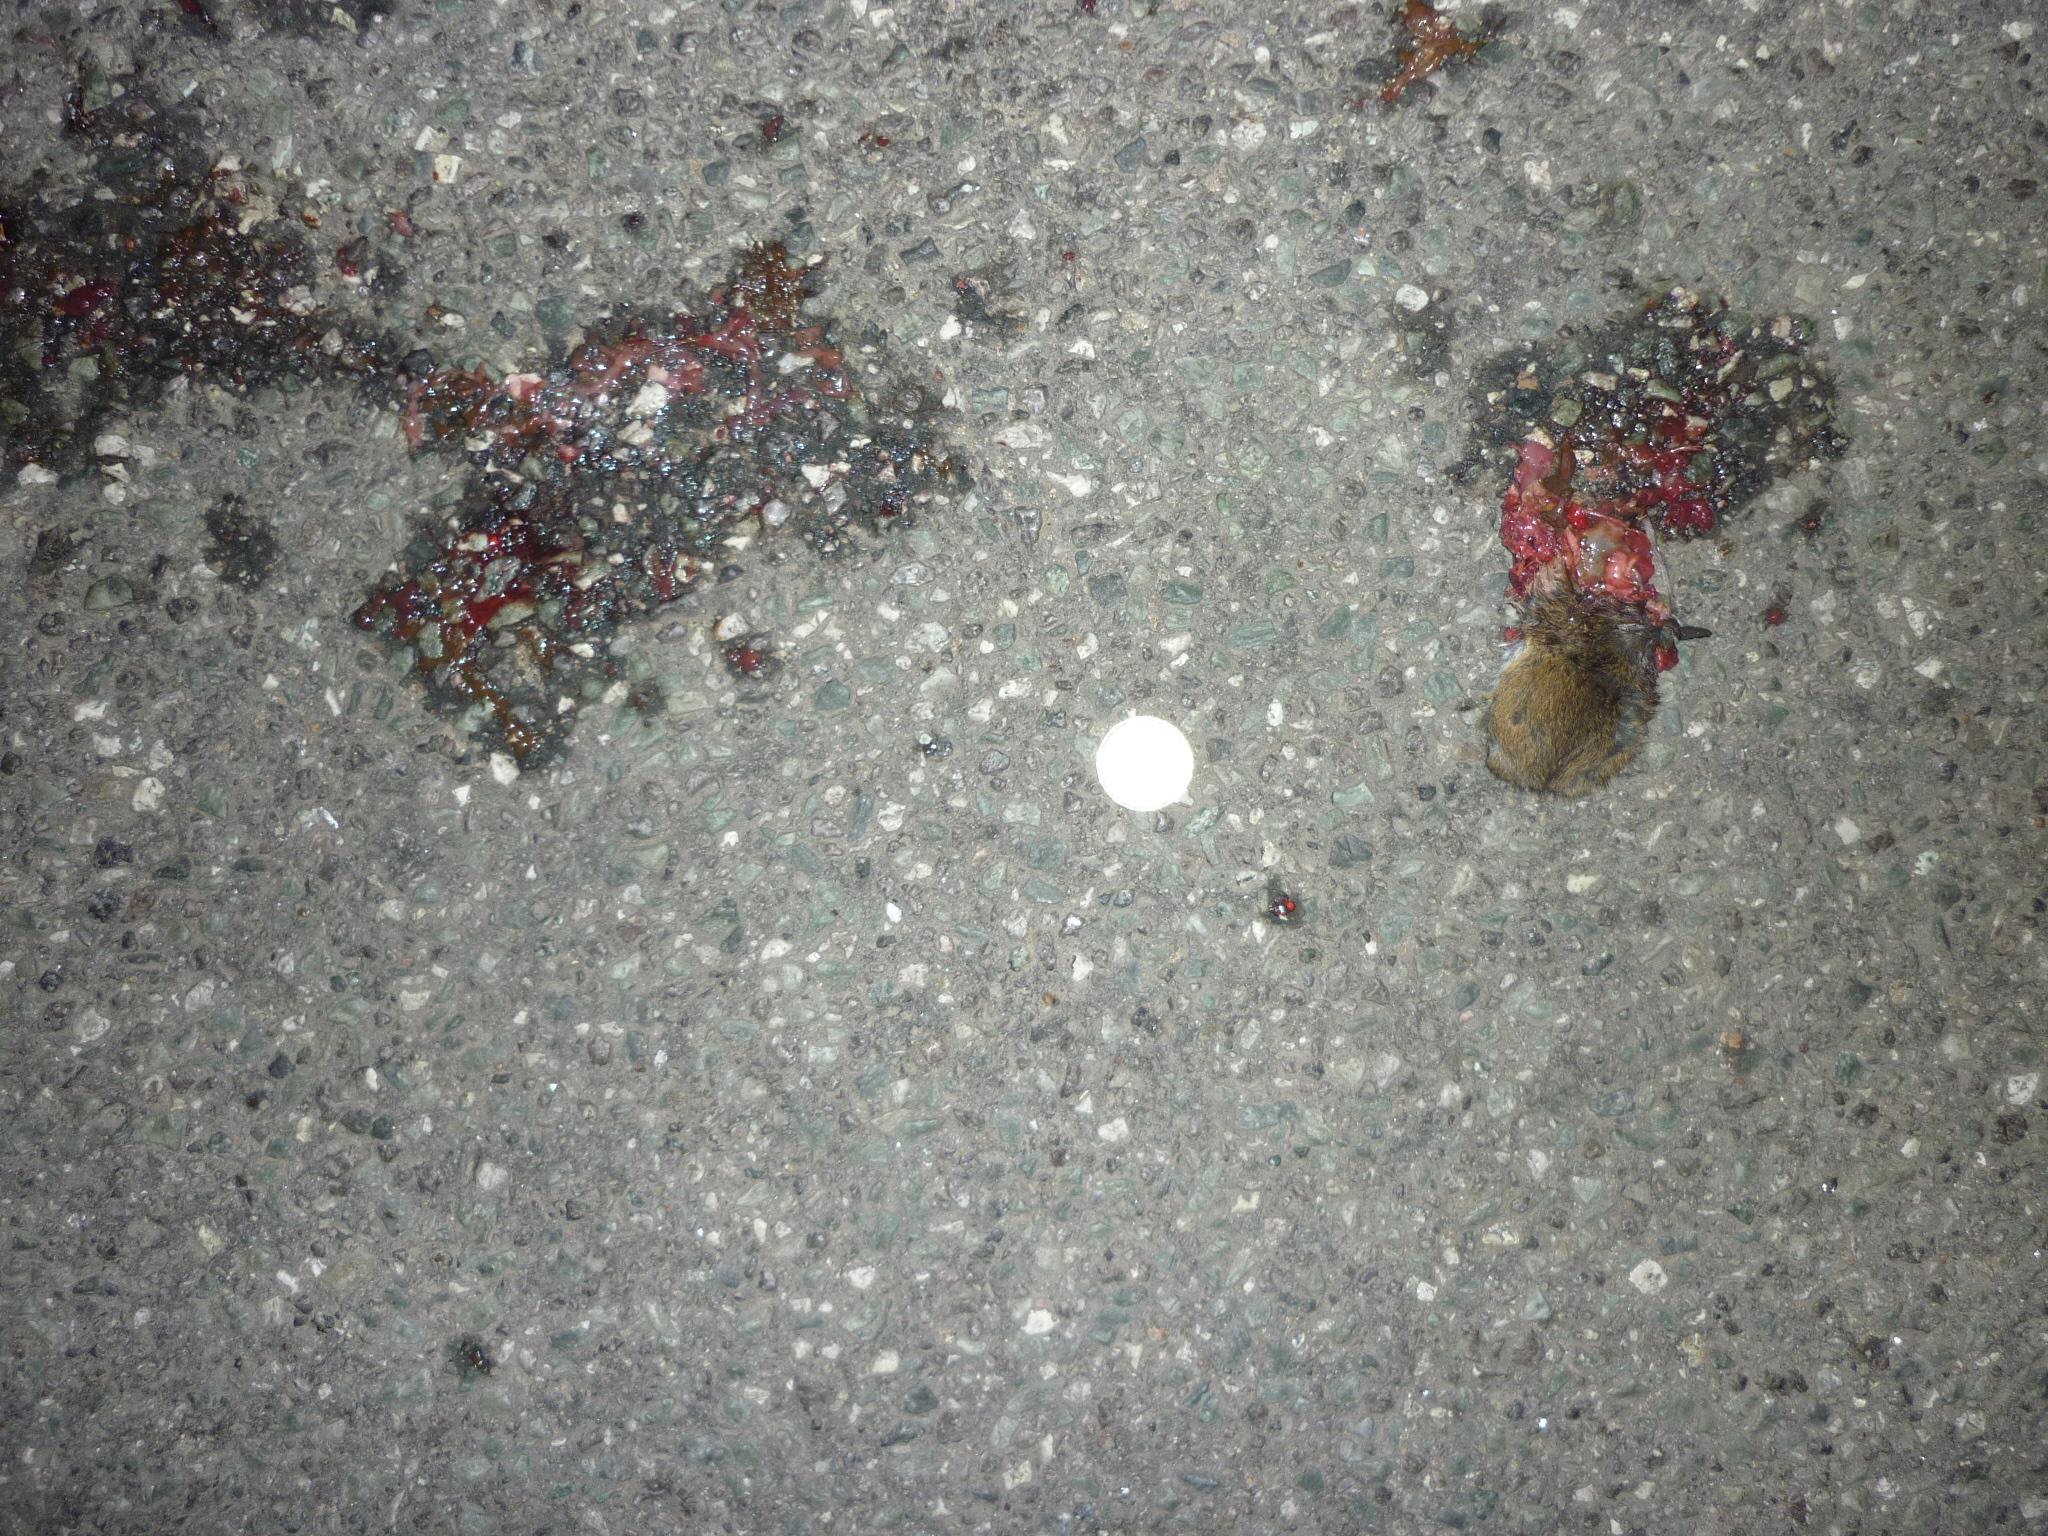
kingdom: Animalia
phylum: Chordata
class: Mammalia
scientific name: Mammalia
